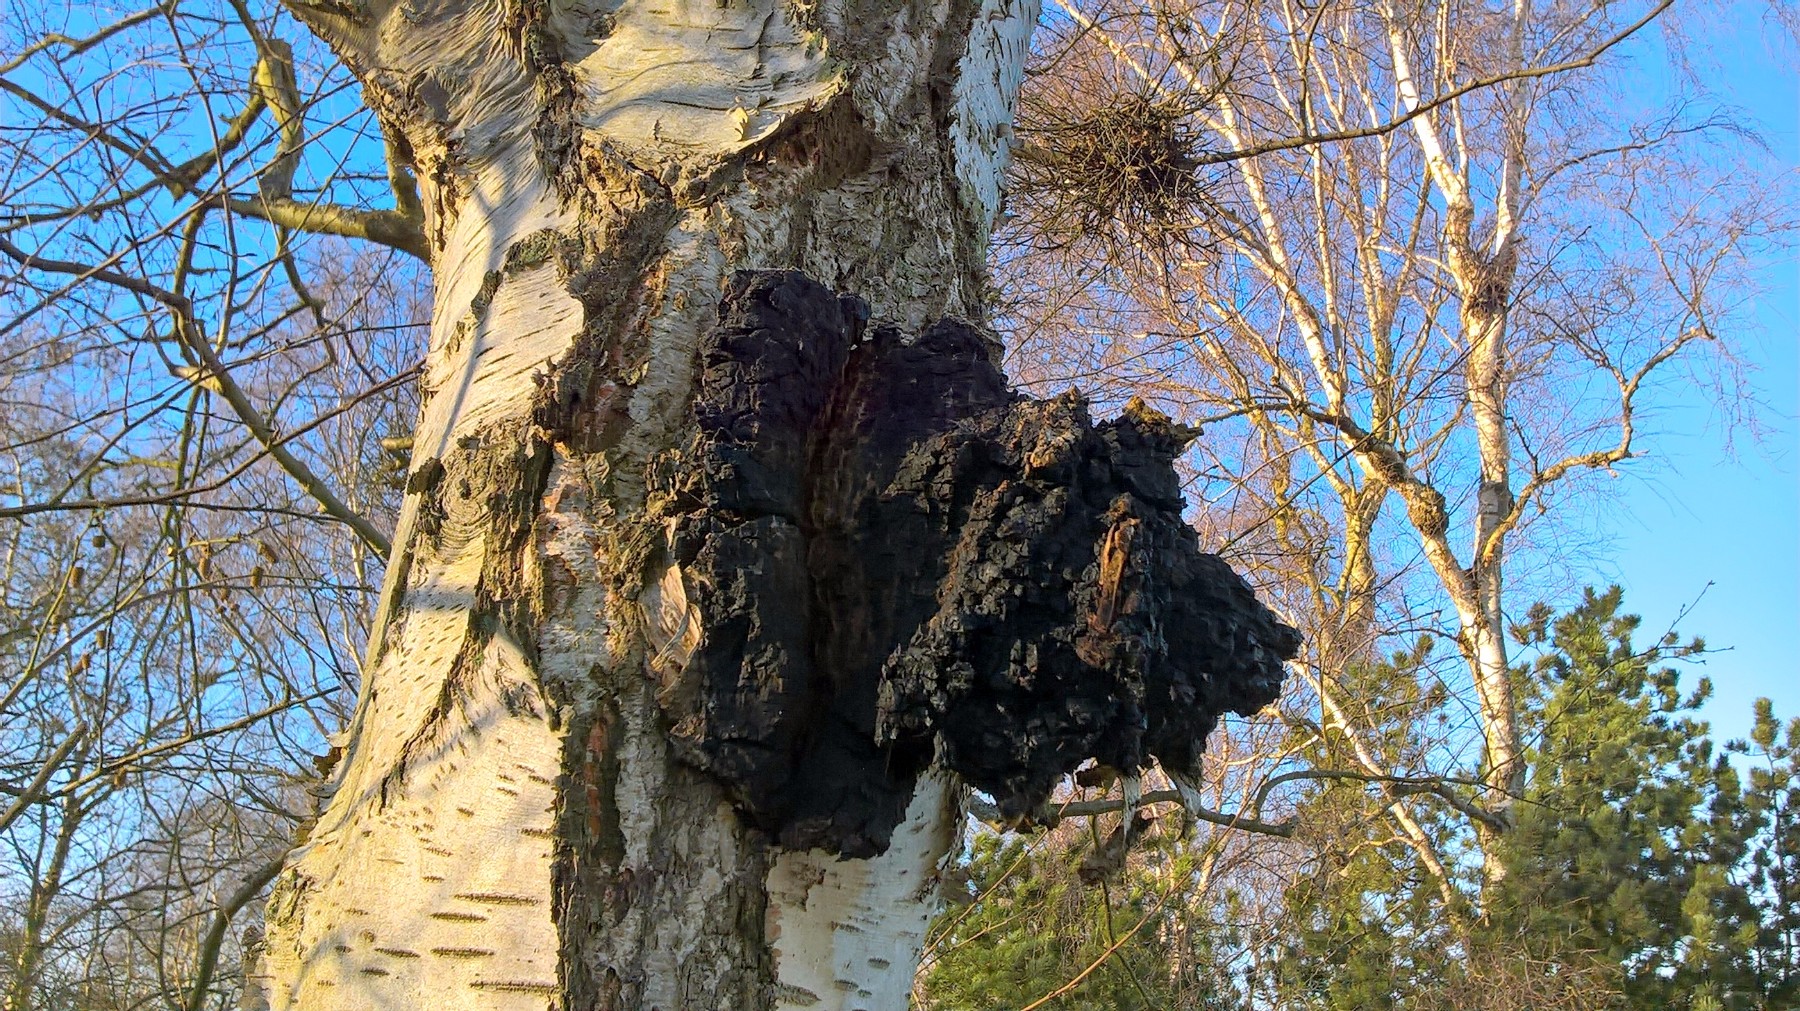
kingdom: Fungi
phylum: Basidiomycota
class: Agaricomycetes
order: Hymenochaetales
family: Hymenochaetaceae
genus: Inonotus
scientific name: Inonotus obliquus
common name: birke-spejlporesvamp
